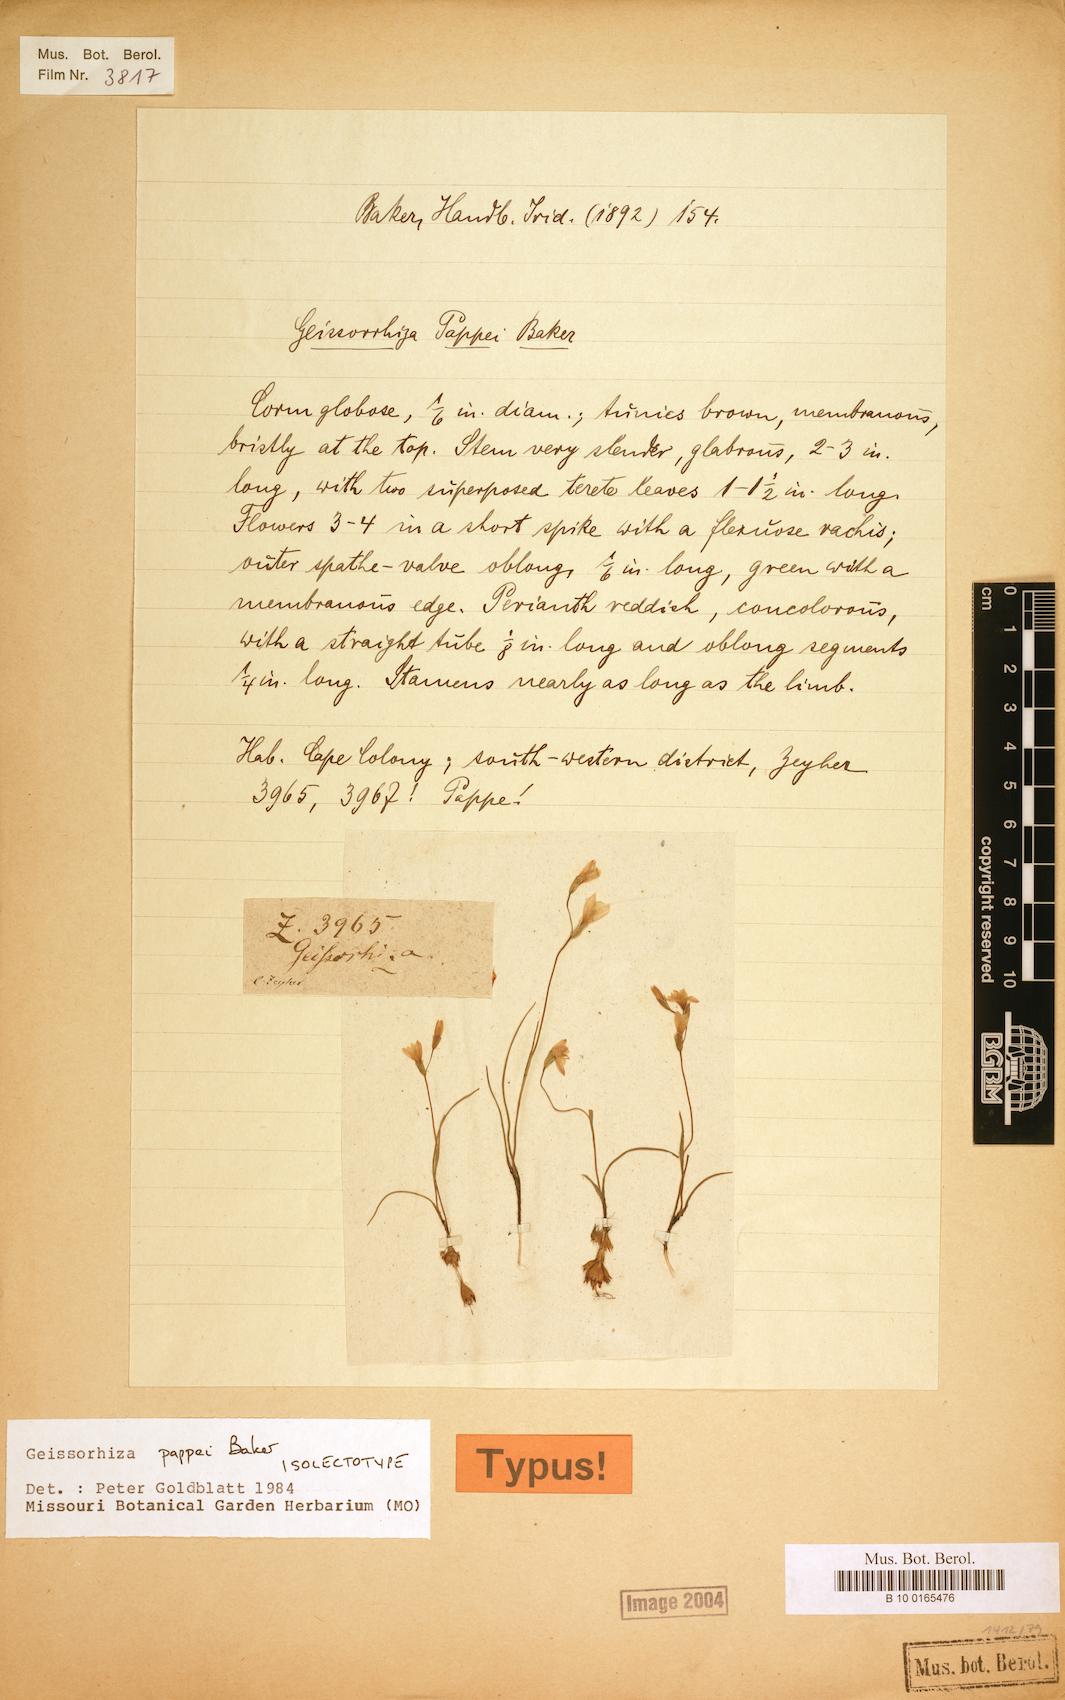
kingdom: Plantae
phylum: Tracheophyta
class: Liliopsida
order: Asparagales
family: Iridaceae
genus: Geissorhiza
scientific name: Geissorhiza pappei
